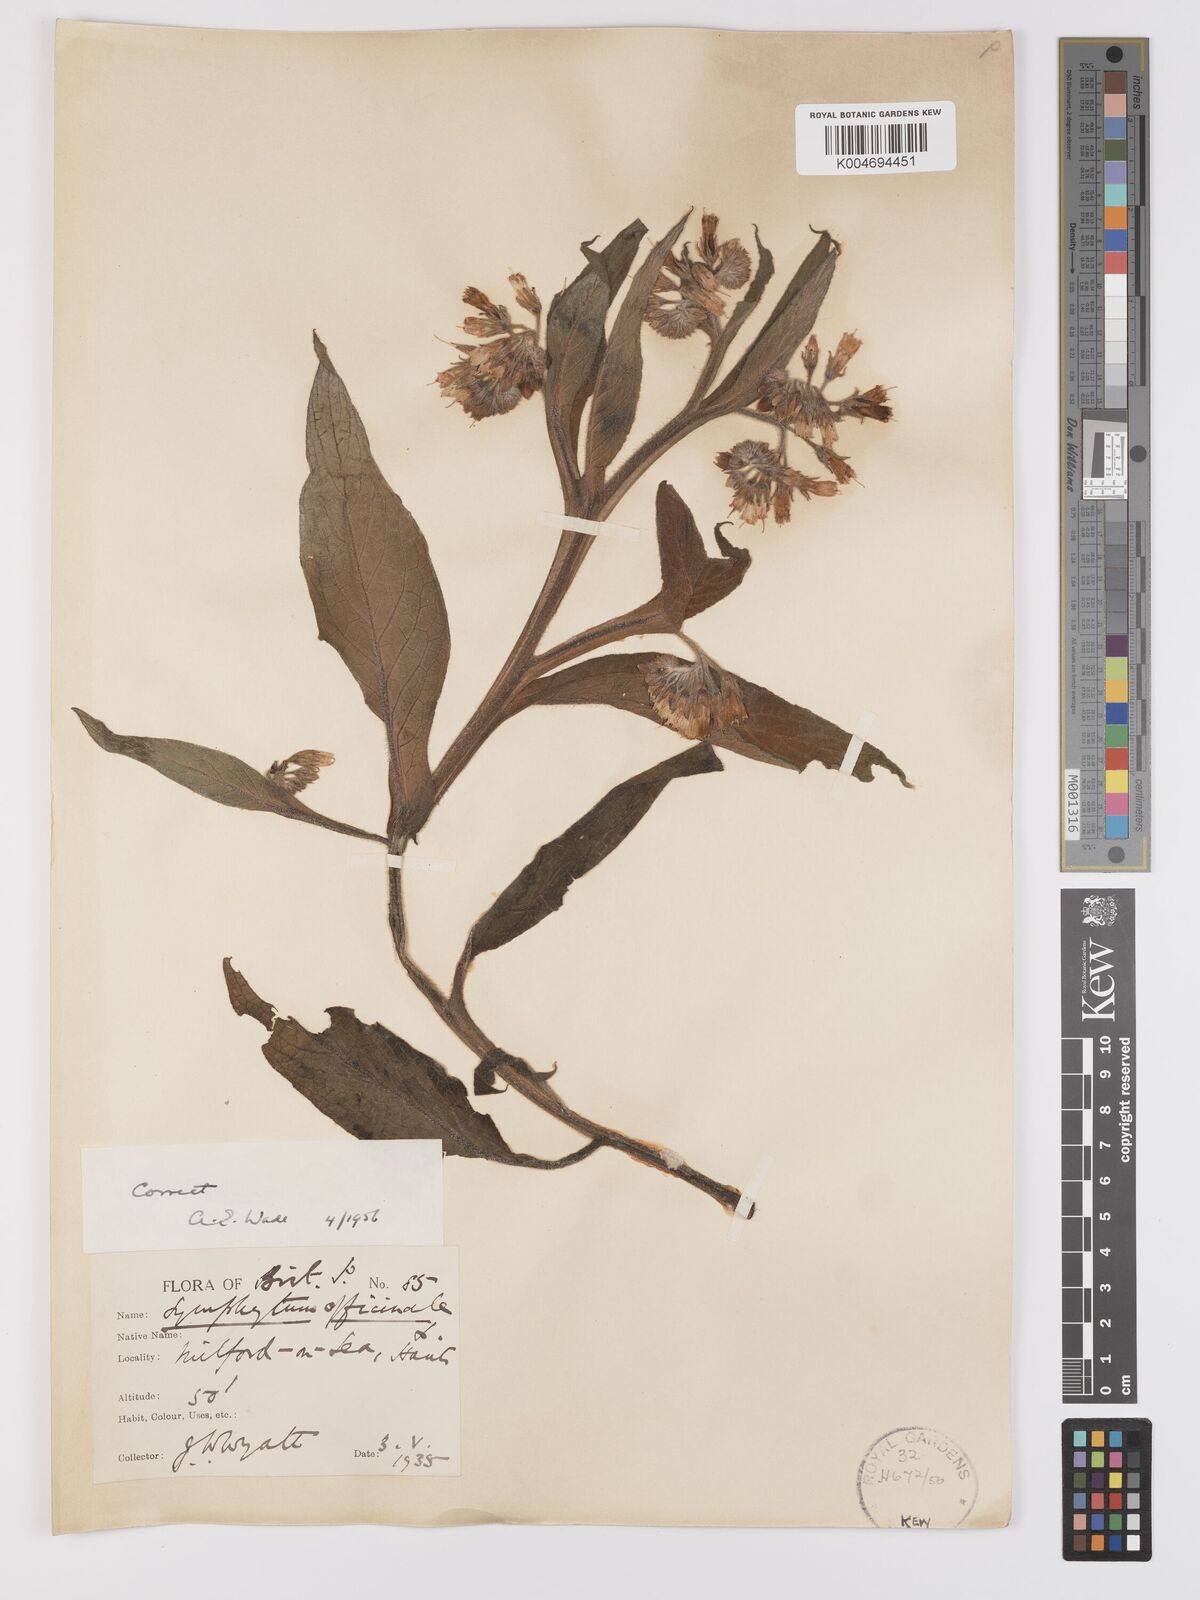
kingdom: Plantae
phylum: Tracheophyta
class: Magnoliopsida
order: Boraginales
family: Boraginaceae
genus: Symphytum
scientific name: Symphytum officinale
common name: Common comfrey
